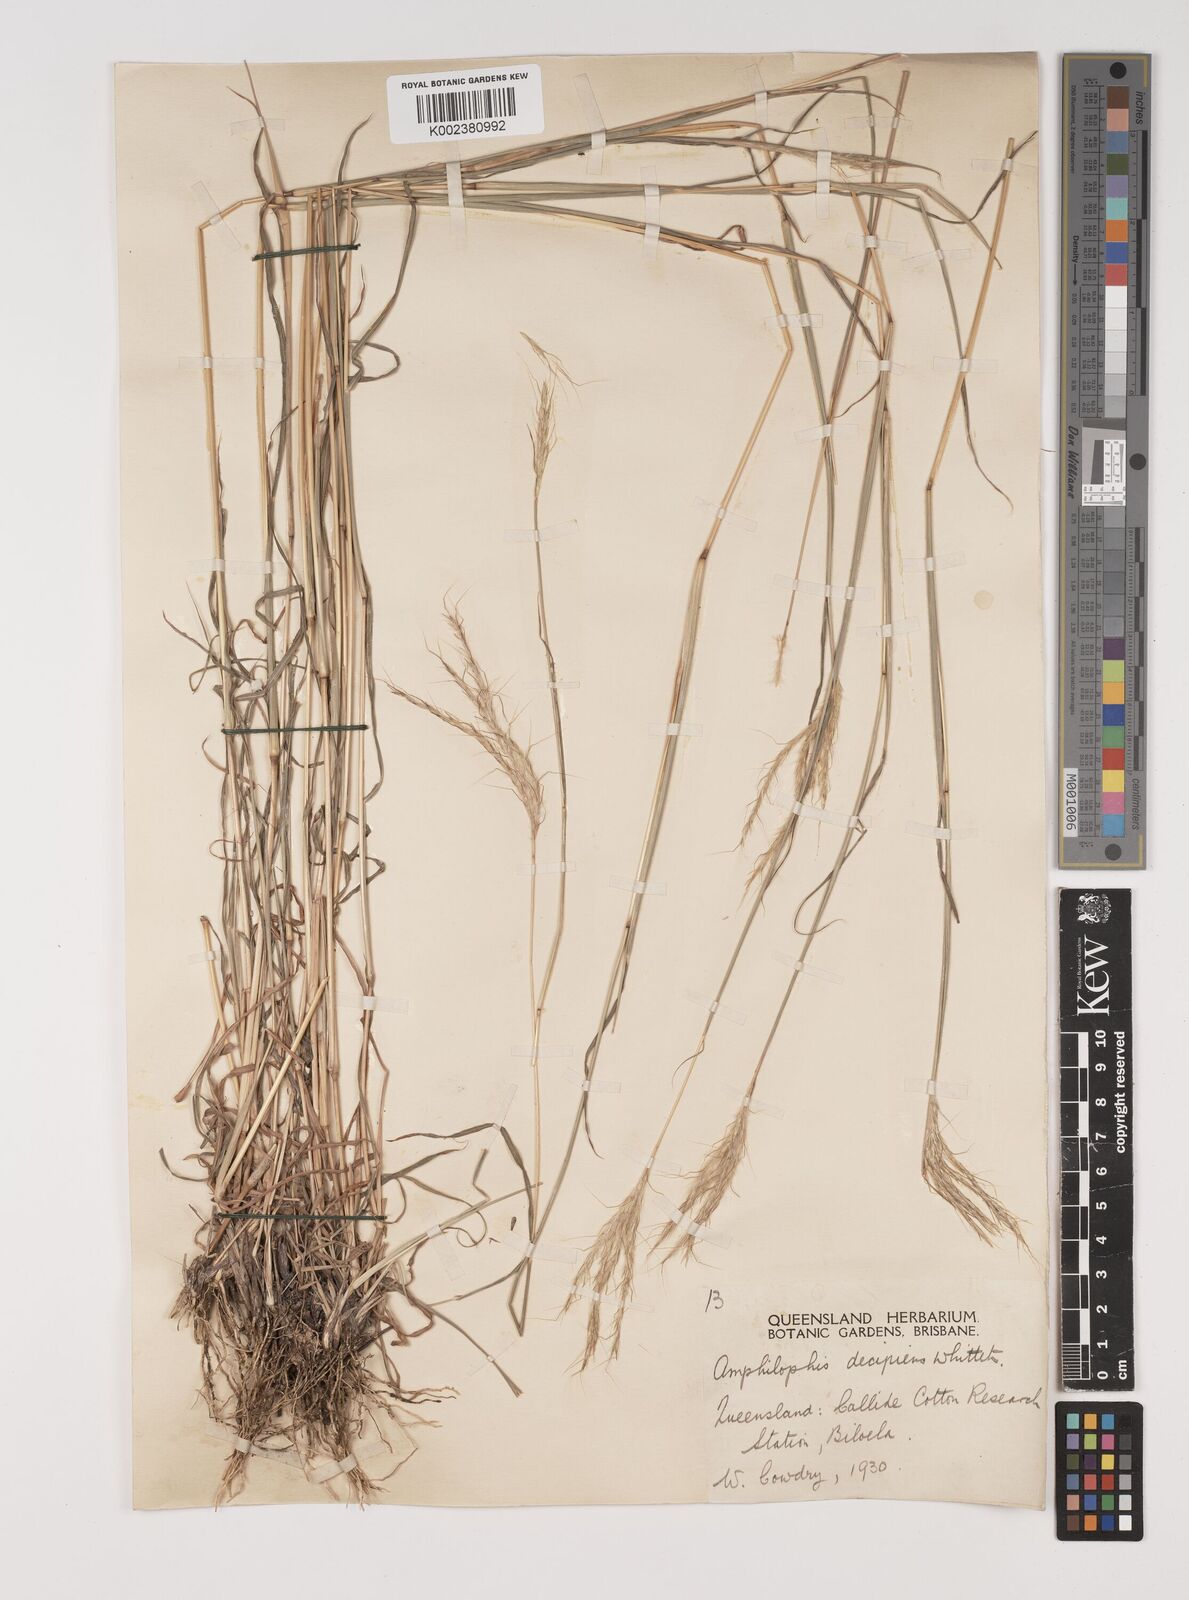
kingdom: Plantae
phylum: Tracheophyta
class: Liliopsida
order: Poales
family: Poaceae
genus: Bothriochloa
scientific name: Bothriochloa decipiens
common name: Pitted-bluegrass
